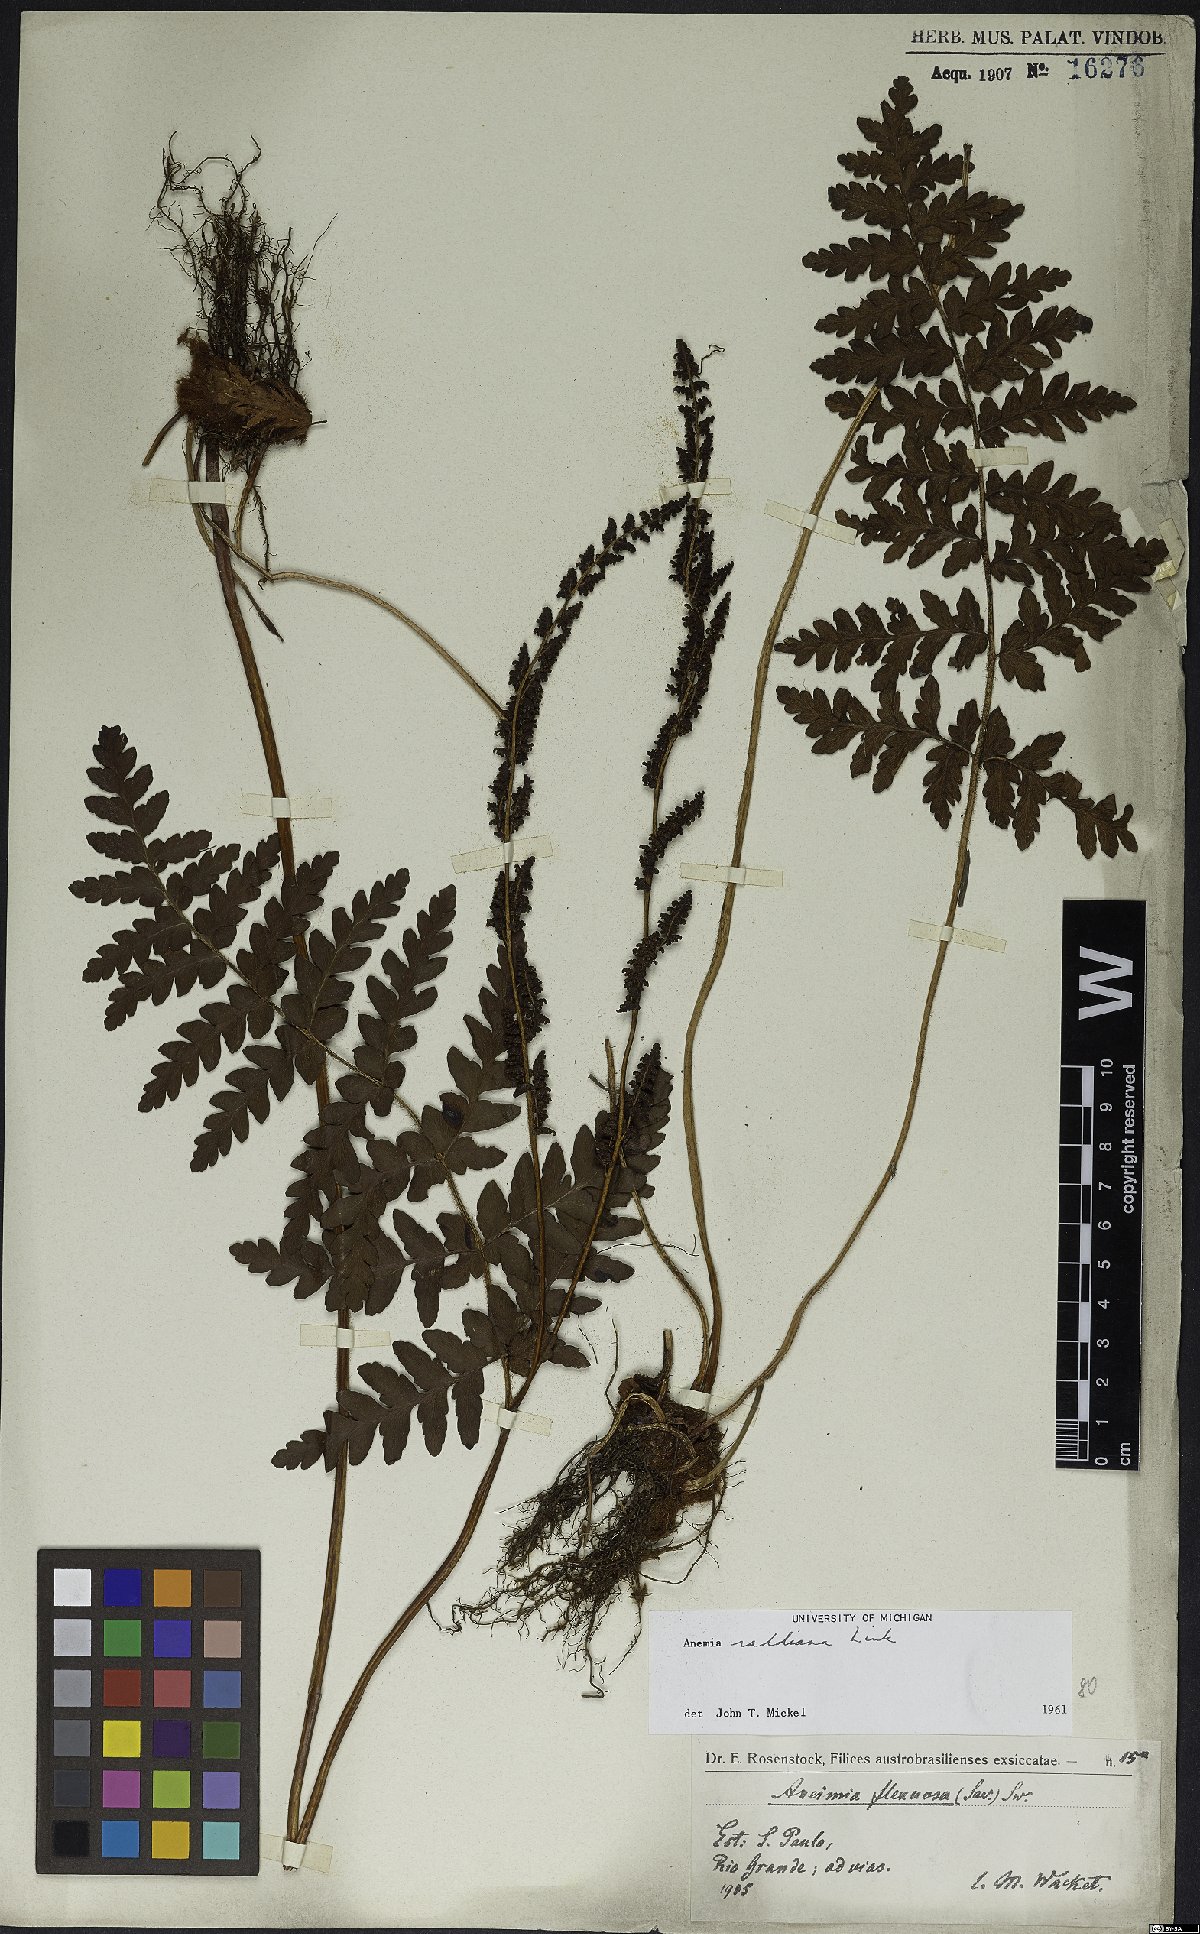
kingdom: Plantae
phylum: Tracheophyta
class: Polypodiopsida
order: Schizaeales
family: Anemiaceae
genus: Anemia
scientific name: Anemia raddiana
